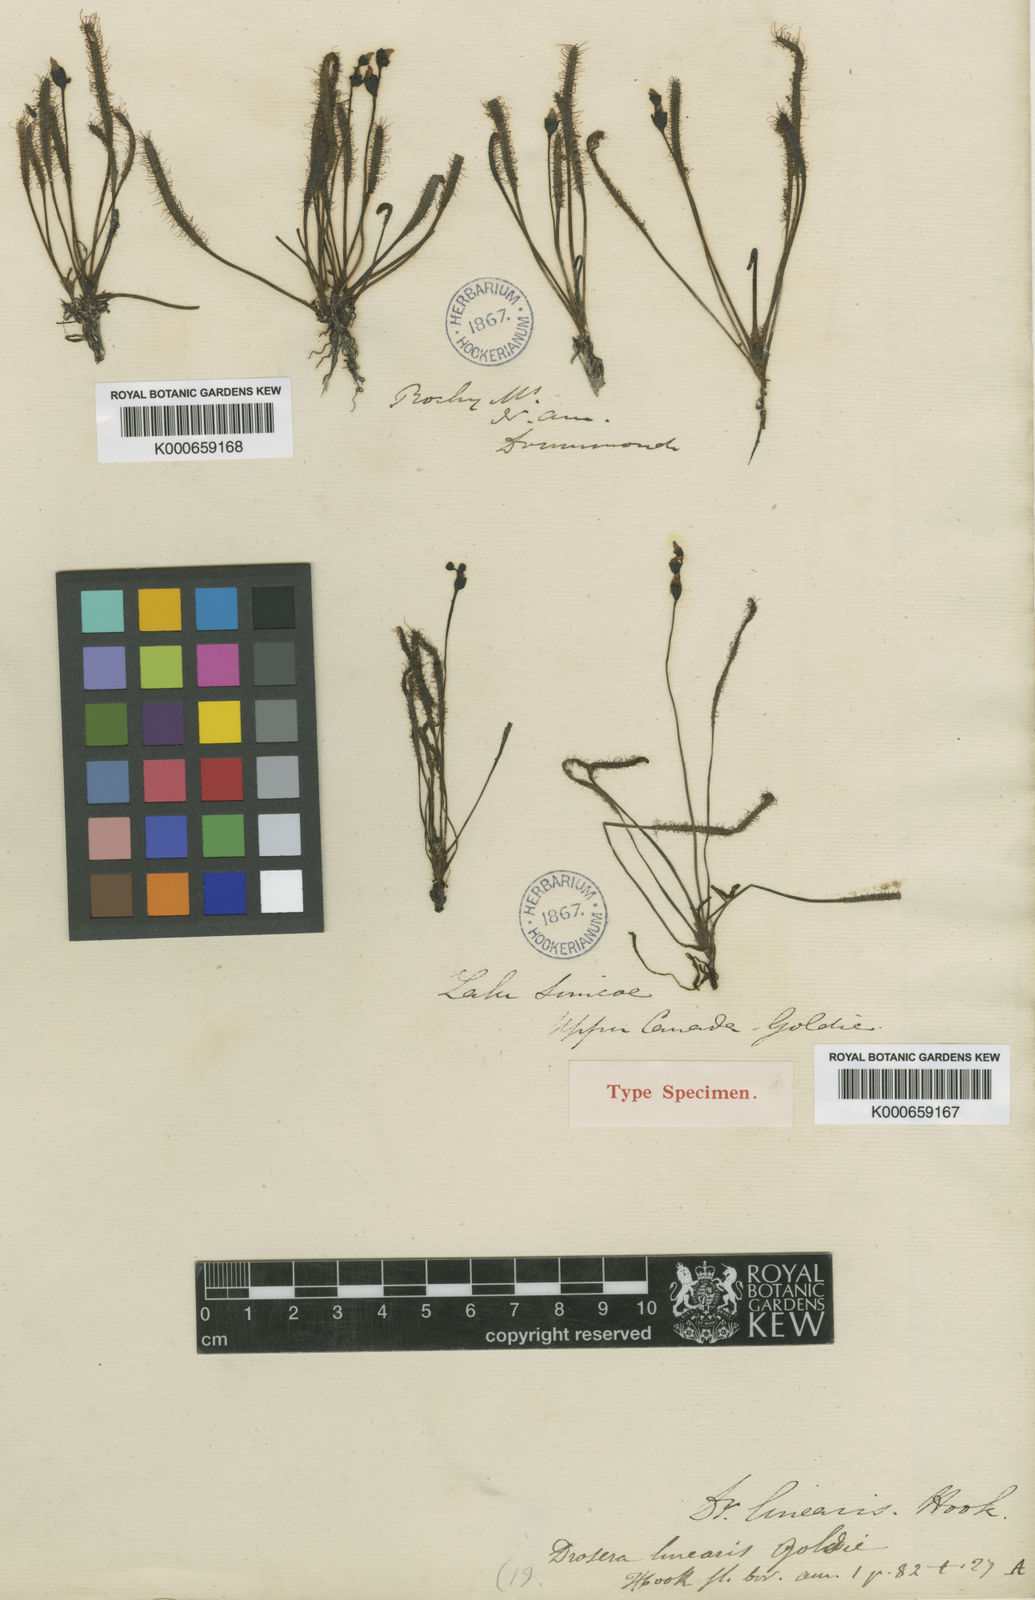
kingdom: Plantae
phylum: Tracheophyta
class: Magnoliopsida
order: Caryophyllales
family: Droseraceae
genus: Drosera
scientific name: Drosera linearis
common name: Linear-leaved sundew
